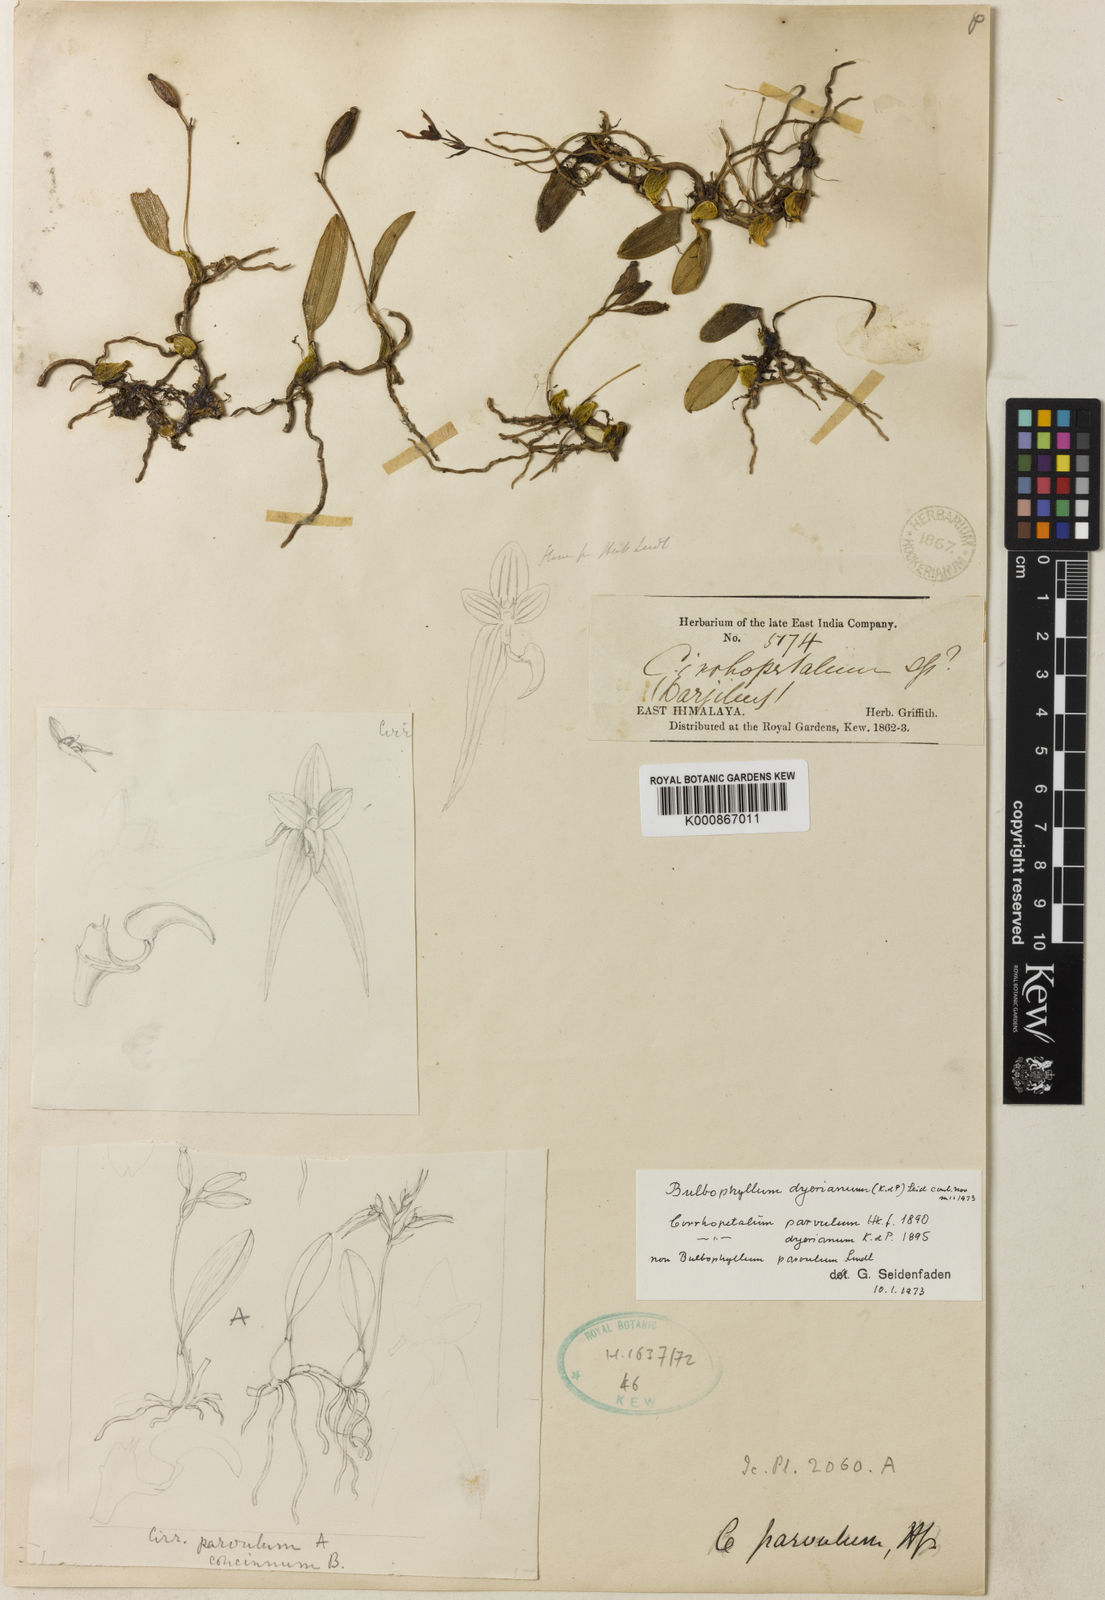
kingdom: Plantae
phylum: Tracheophyta
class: Liliopsida
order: Asparagales
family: Orchidaceae
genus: Bulbophyllum
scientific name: Bulbophyllum rolfei
